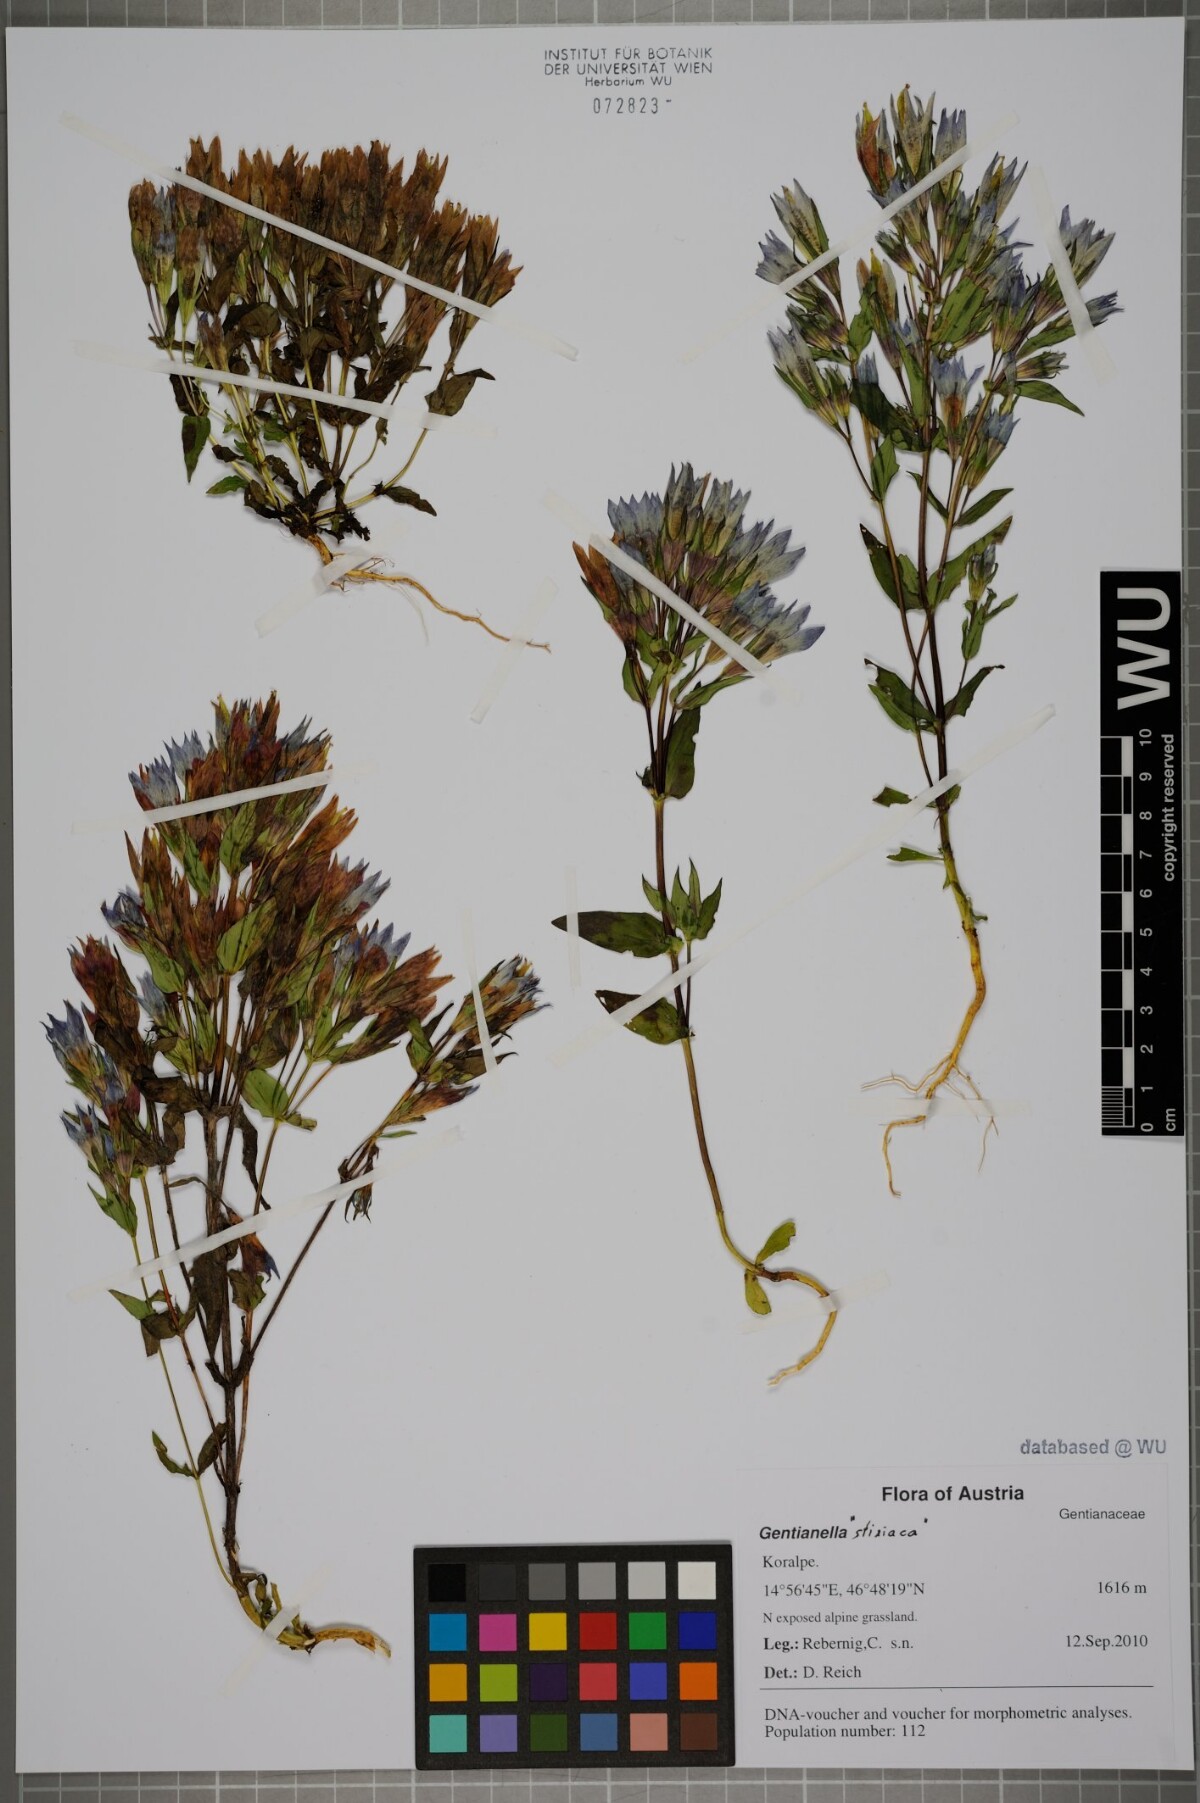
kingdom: Plantae
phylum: Tracheophyta
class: Magnoliopsida
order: Gentianales
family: Gentianaceae
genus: Gentianella
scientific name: Gentianella
